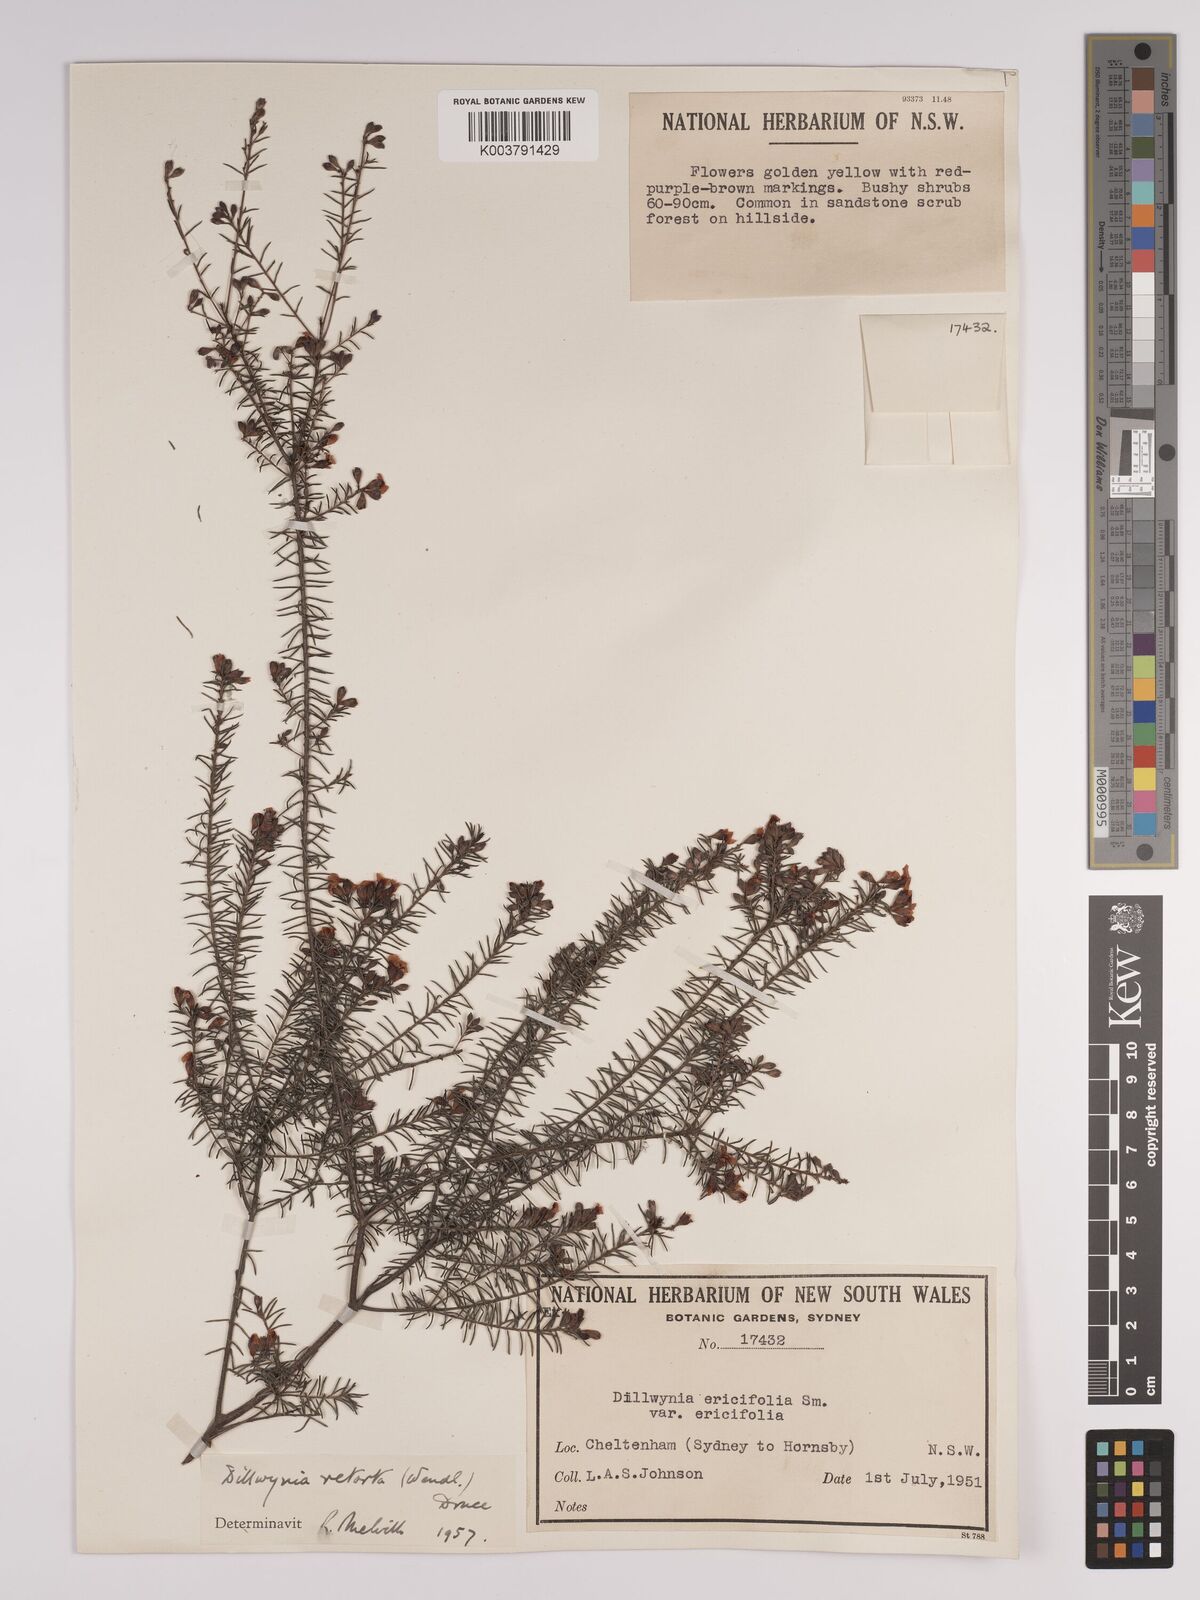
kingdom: Plantae
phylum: Tracheophyta
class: Magnoliopsida
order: Fabales
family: Fabaceae
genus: Dillwynia
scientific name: Dillwynia retorta
